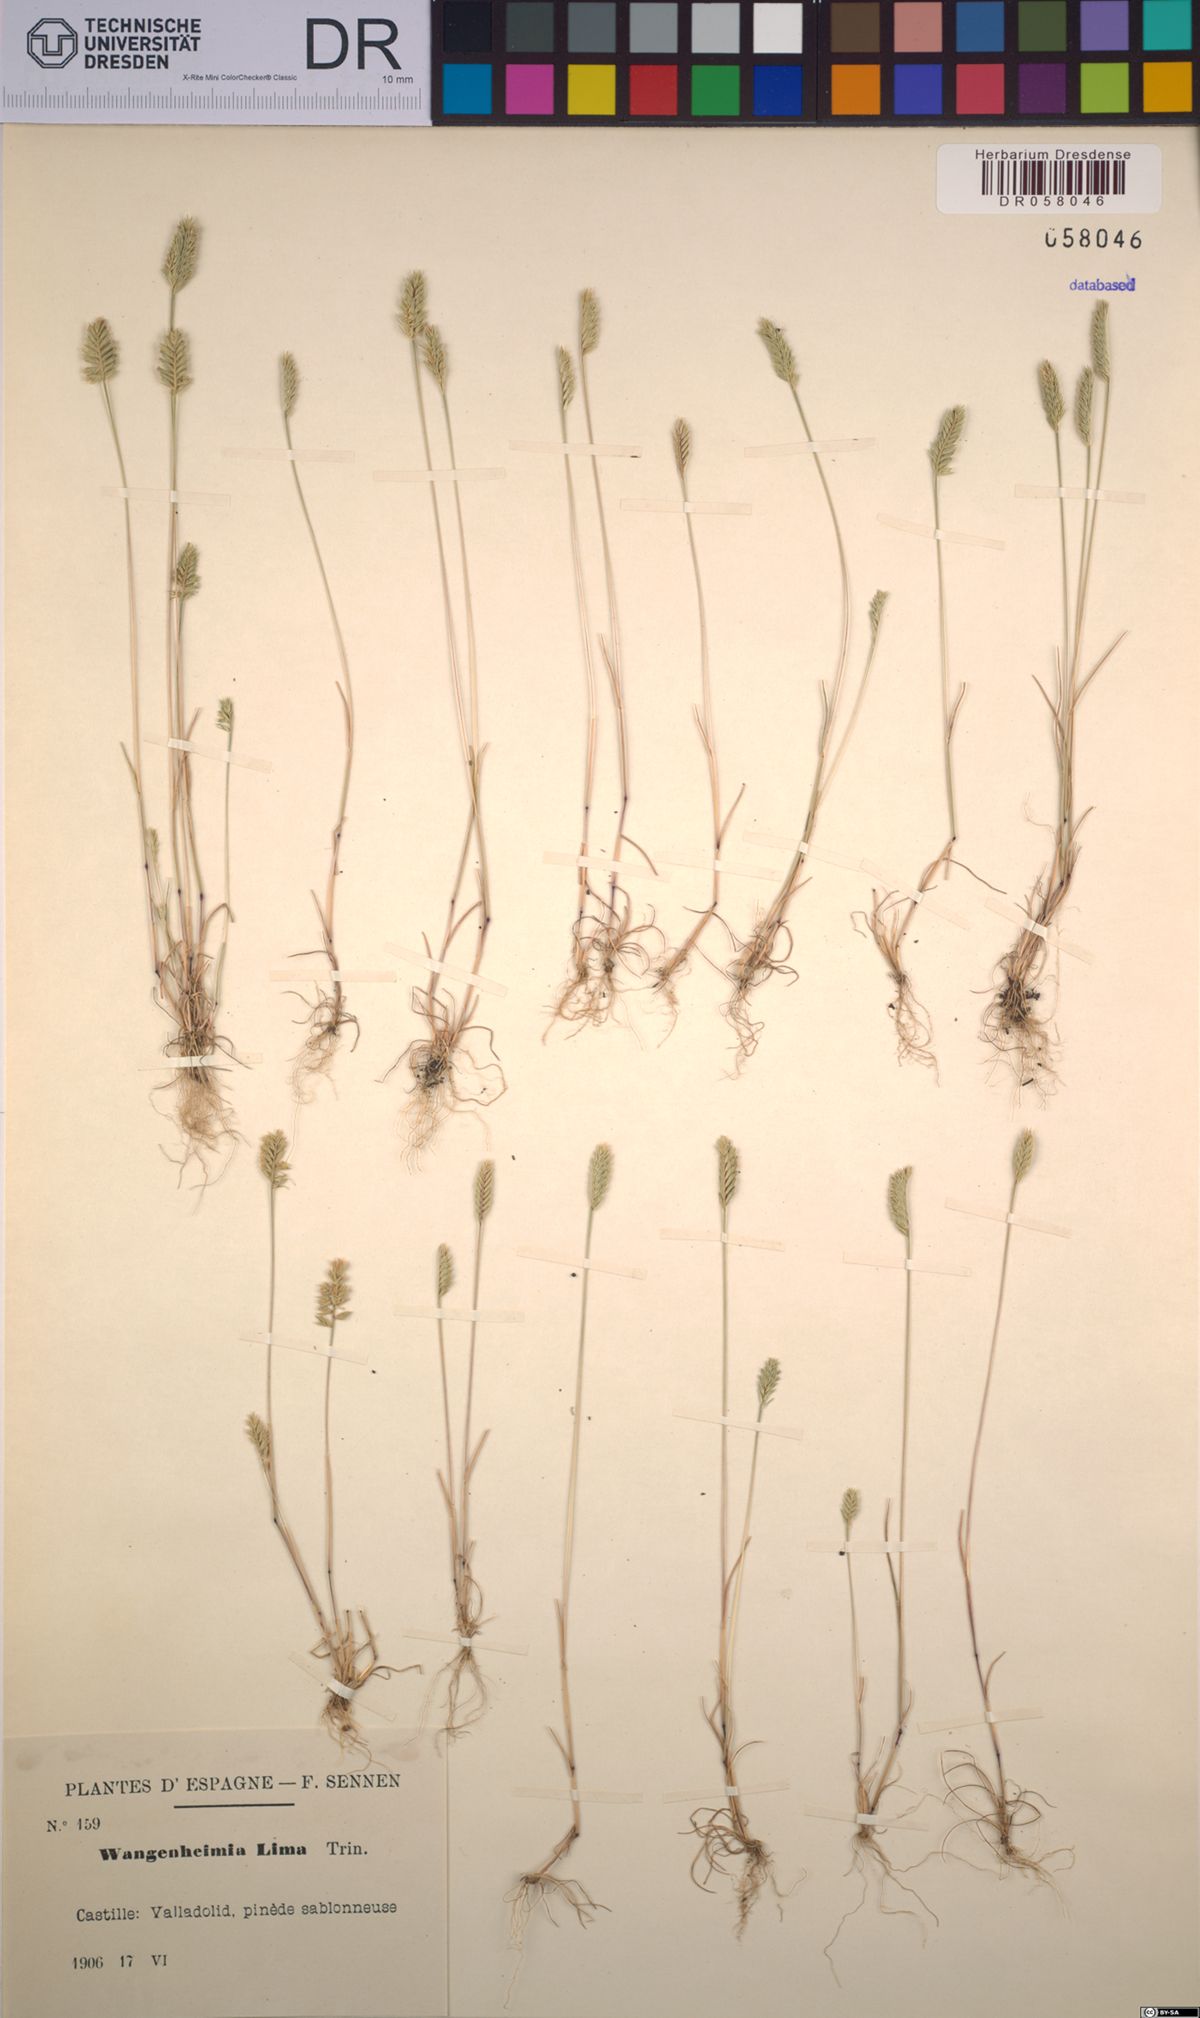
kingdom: Plantae
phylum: Tracheophyta
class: Liliopsida
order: Poales
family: Poaceae
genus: Wangenheimia
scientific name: Wangenheimia lima
